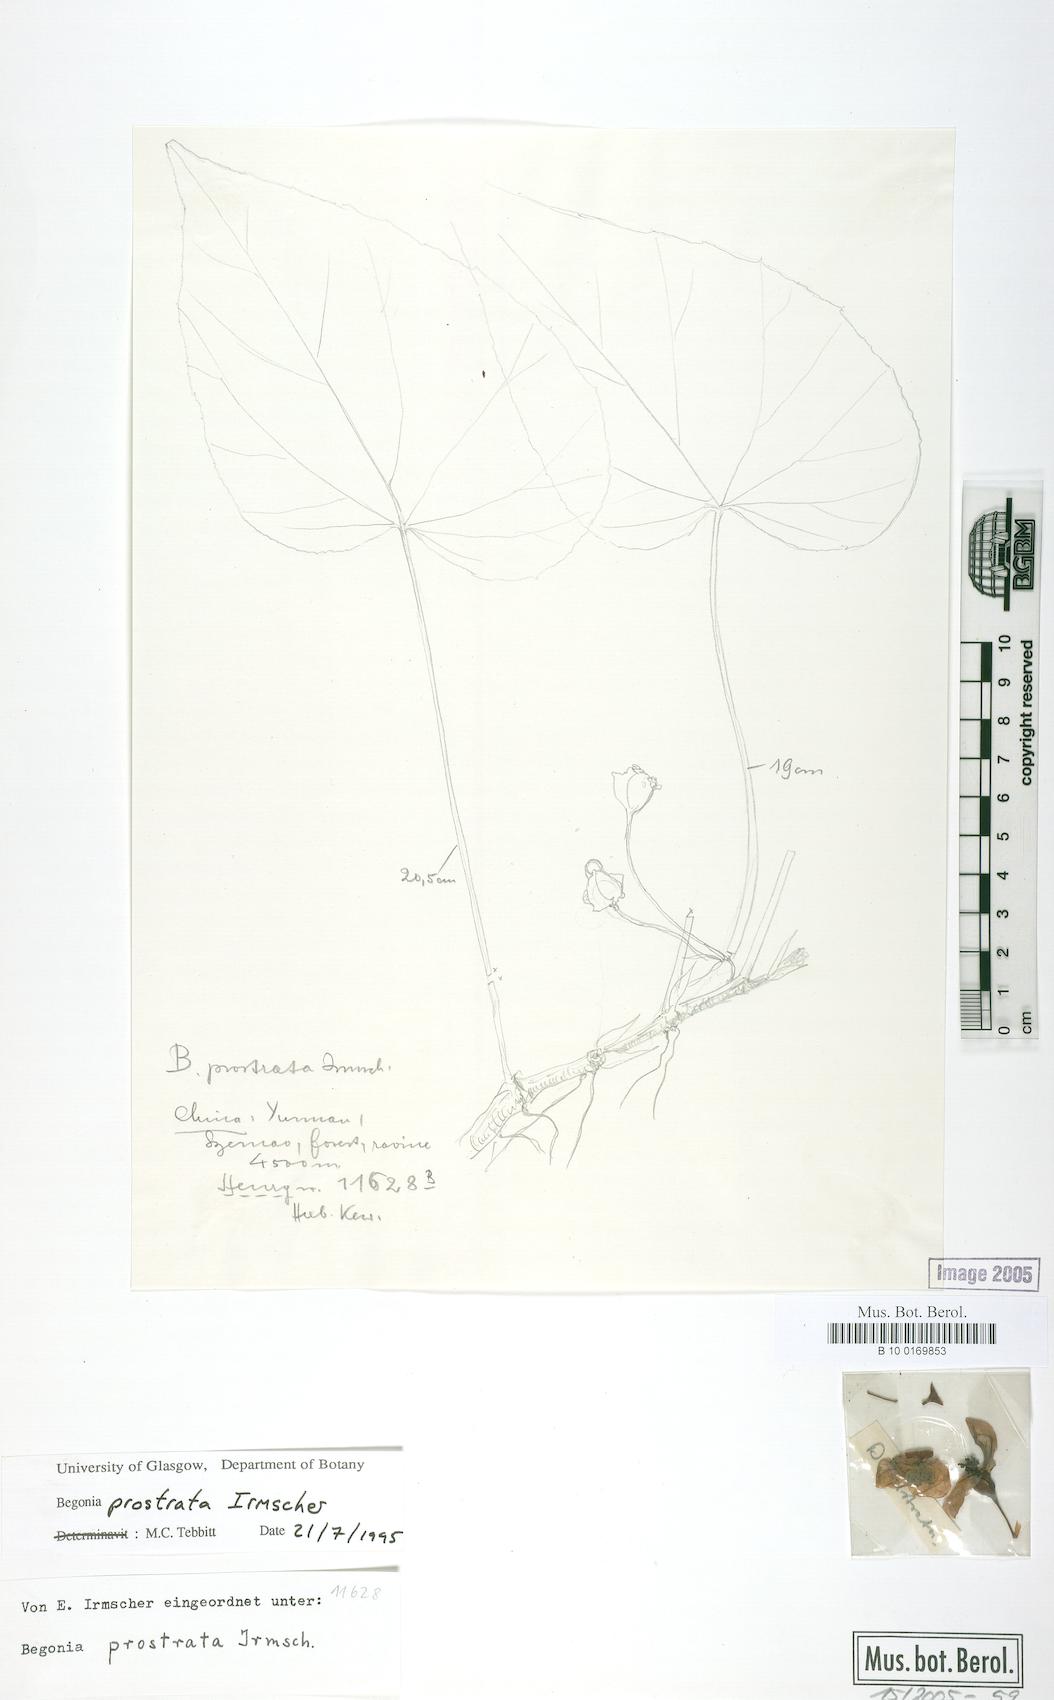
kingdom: Plantae
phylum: Tracheophyta
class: Magnoliopsida
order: Cucurbitales
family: Begoniaceae
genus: Begonia
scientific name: Begonia handelii
